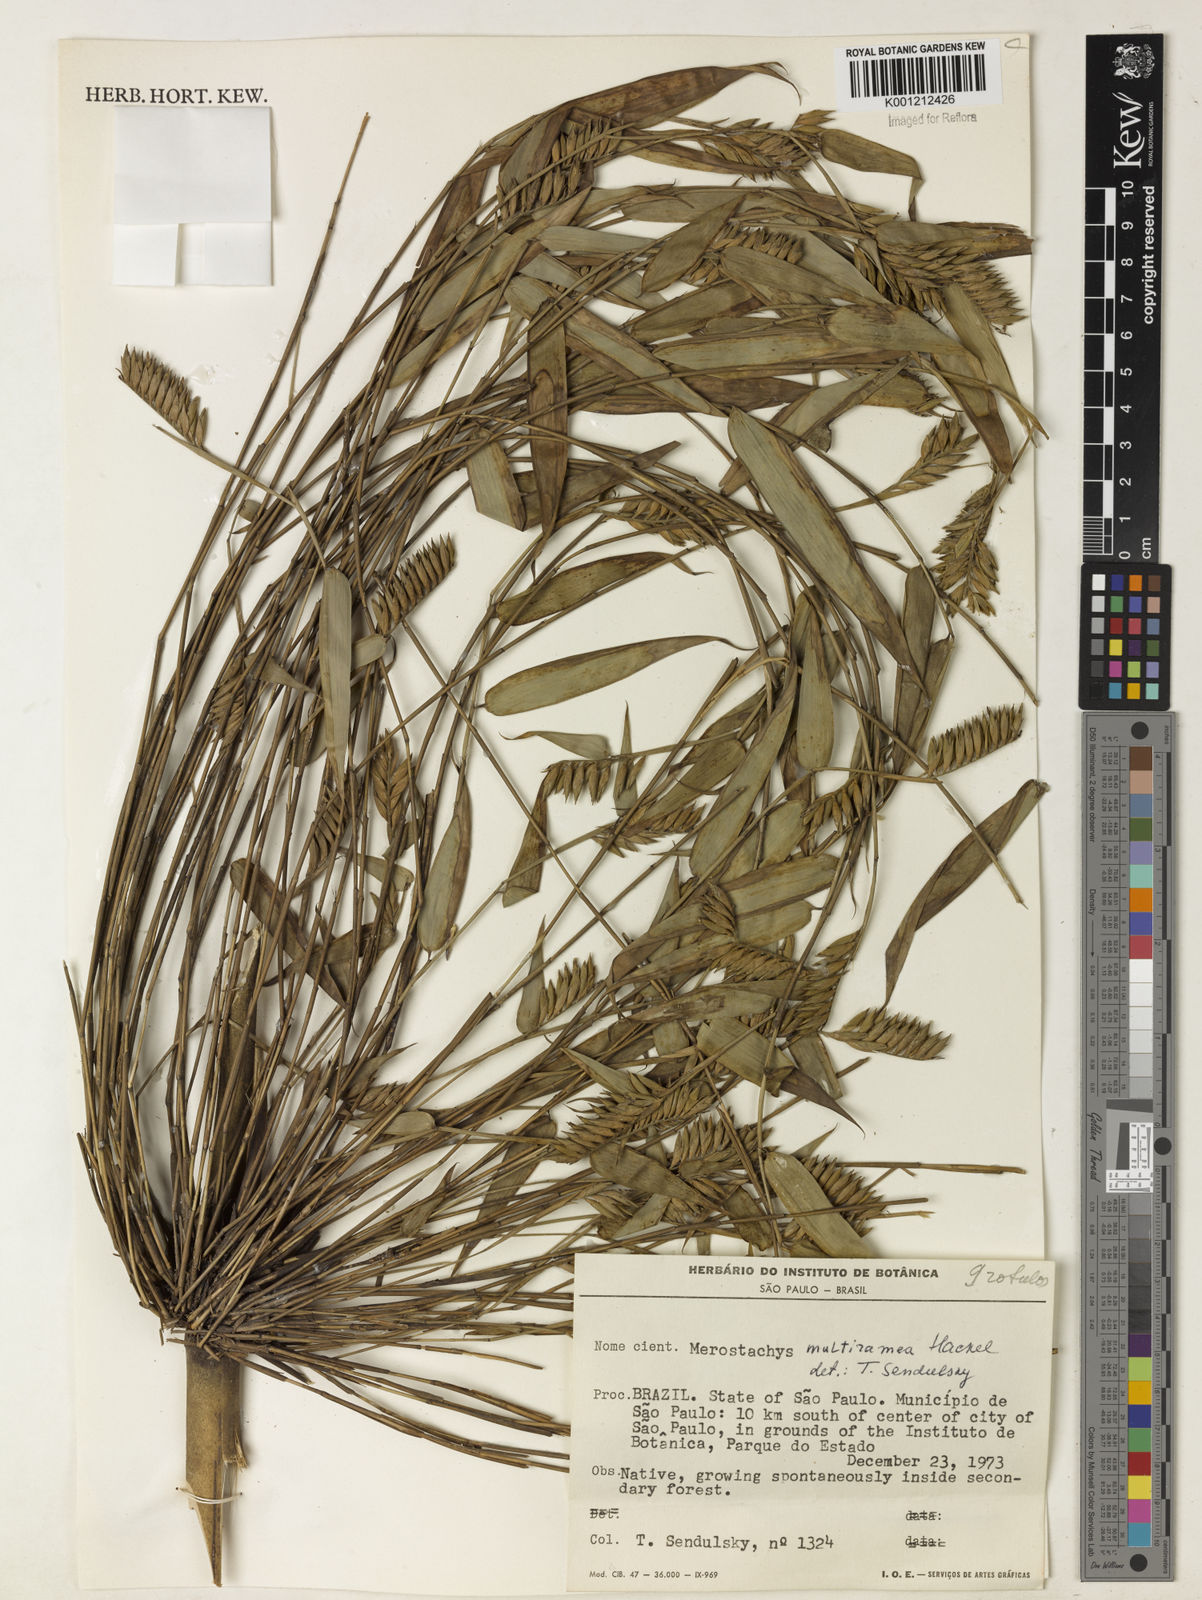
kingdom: Plantae
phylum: Tracheophyta
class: Liliopsida
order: Poales
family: Poaceae
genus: Merostachys
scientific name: Merostachys multiramea
